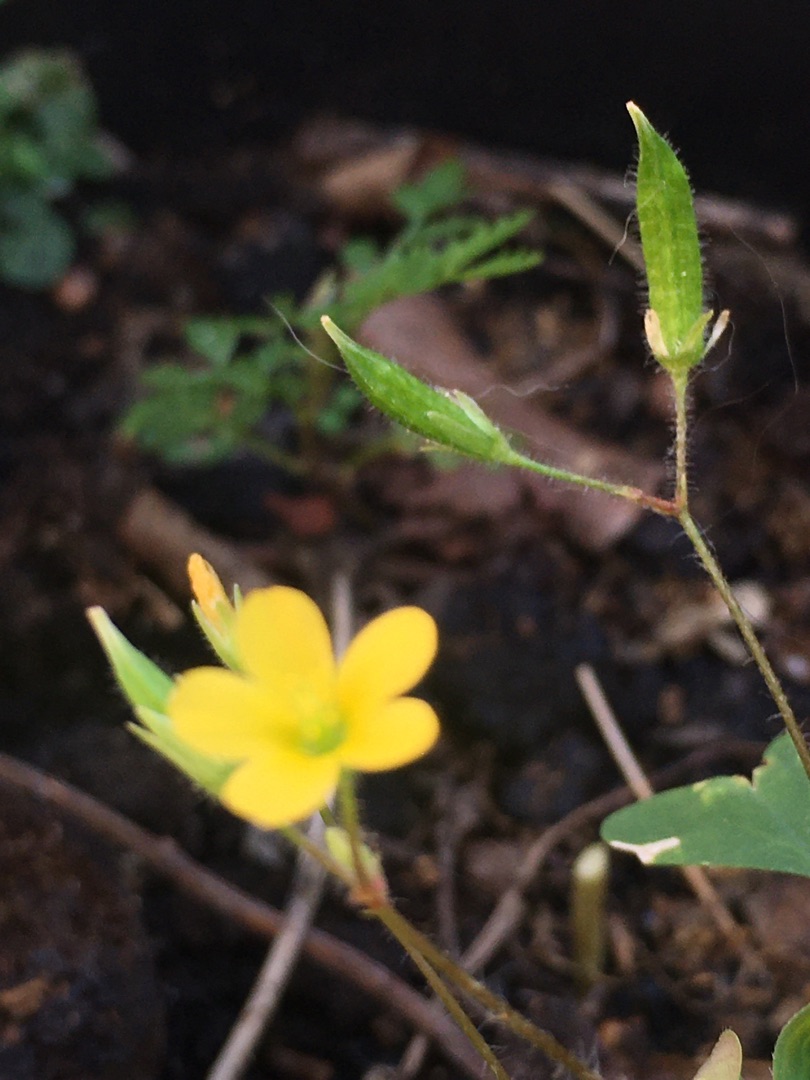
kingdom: Plantae
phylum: Tracheophyta
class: Magnoliopsida
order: Oxalidales
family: Oxalidaceae
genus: Oxalis
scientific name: Oxalis stricta
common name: Rank surkløver
